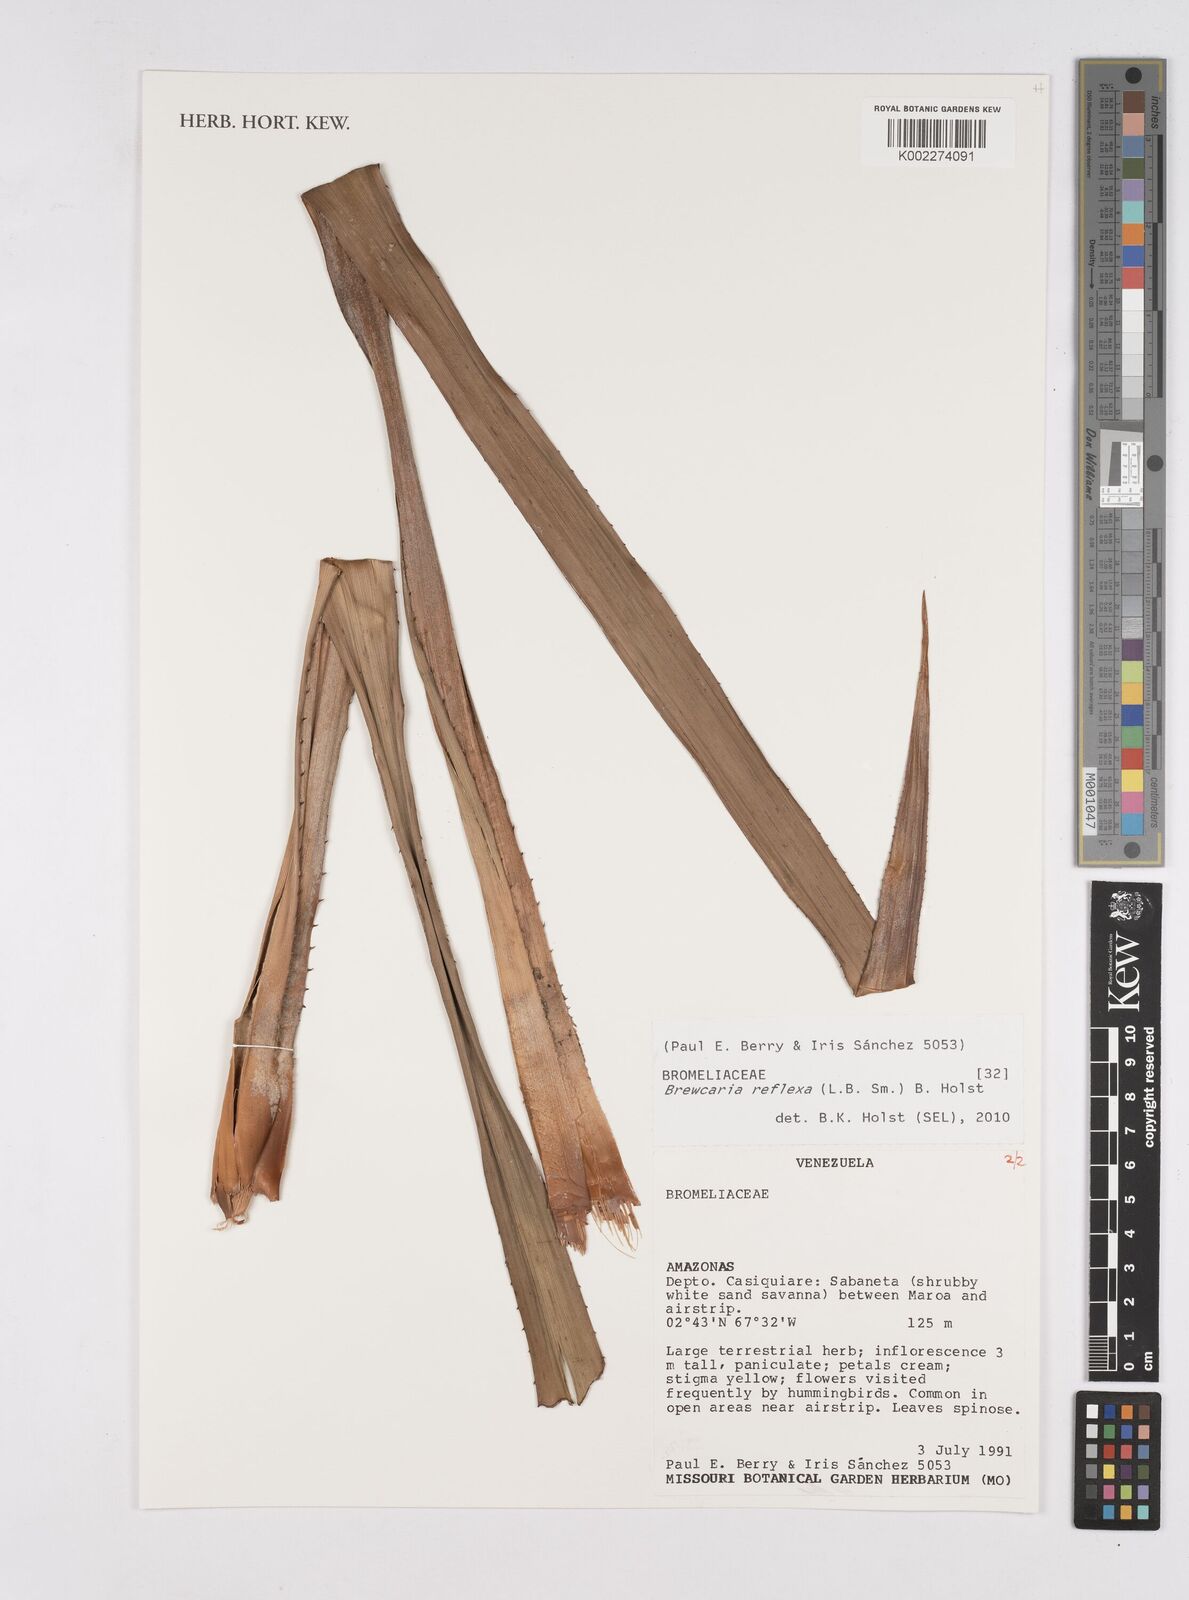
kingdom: Plantae
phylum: Tracheophyta
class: Liliopsida
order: Poales
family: Bromeliaceae
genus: Navia
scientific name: Navia reflexa
